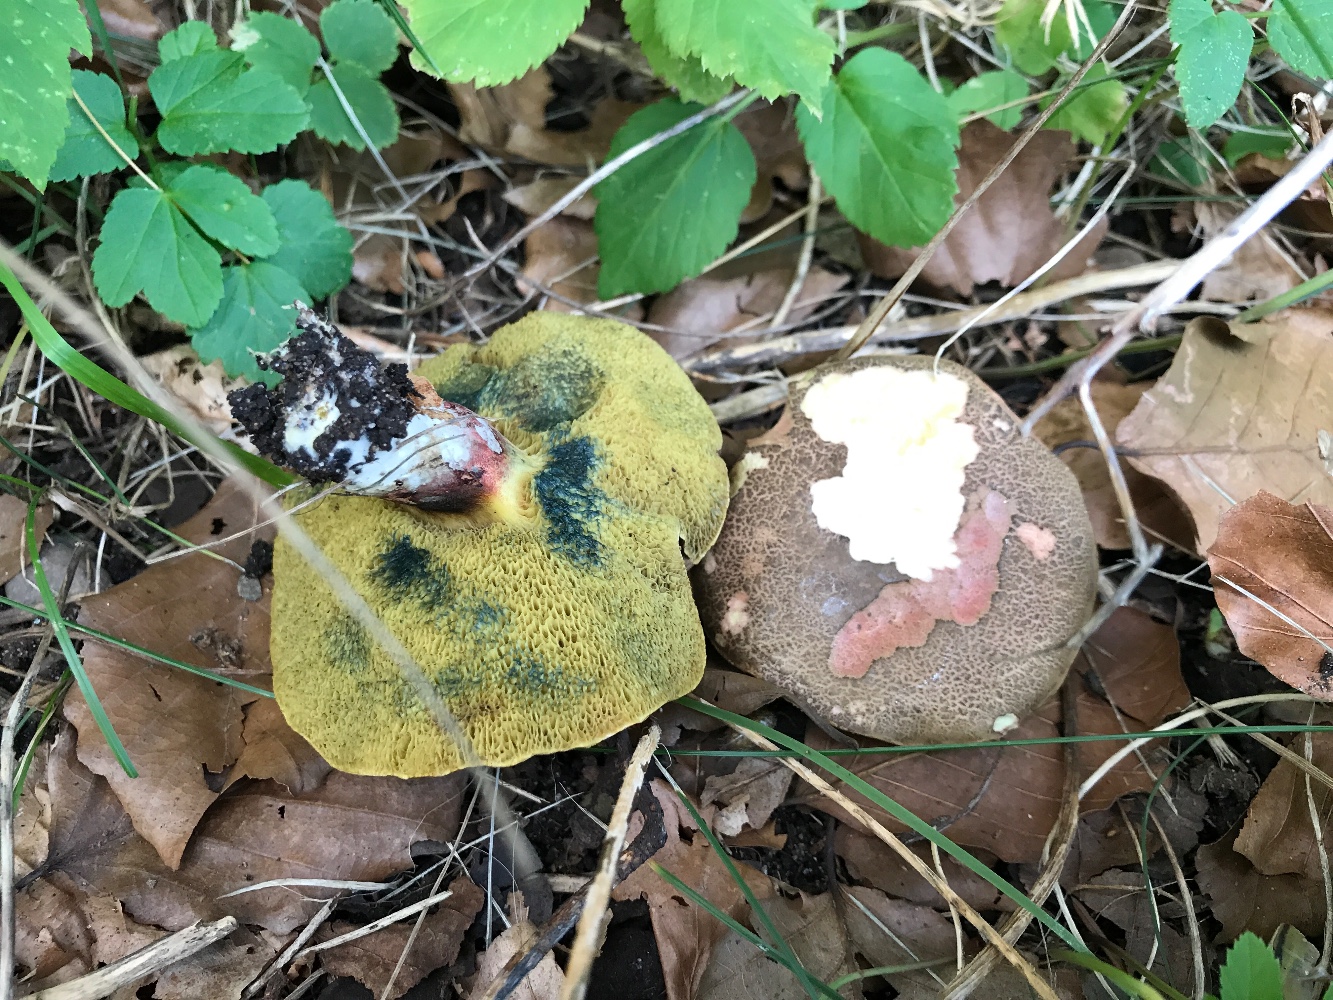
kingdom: Fungi
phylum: Basidiomycota
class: Agaricomycetes
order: Boletales
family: Boletaceae
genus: Xerocomellus
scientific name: Xerocomellus
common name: dværgrørhat
